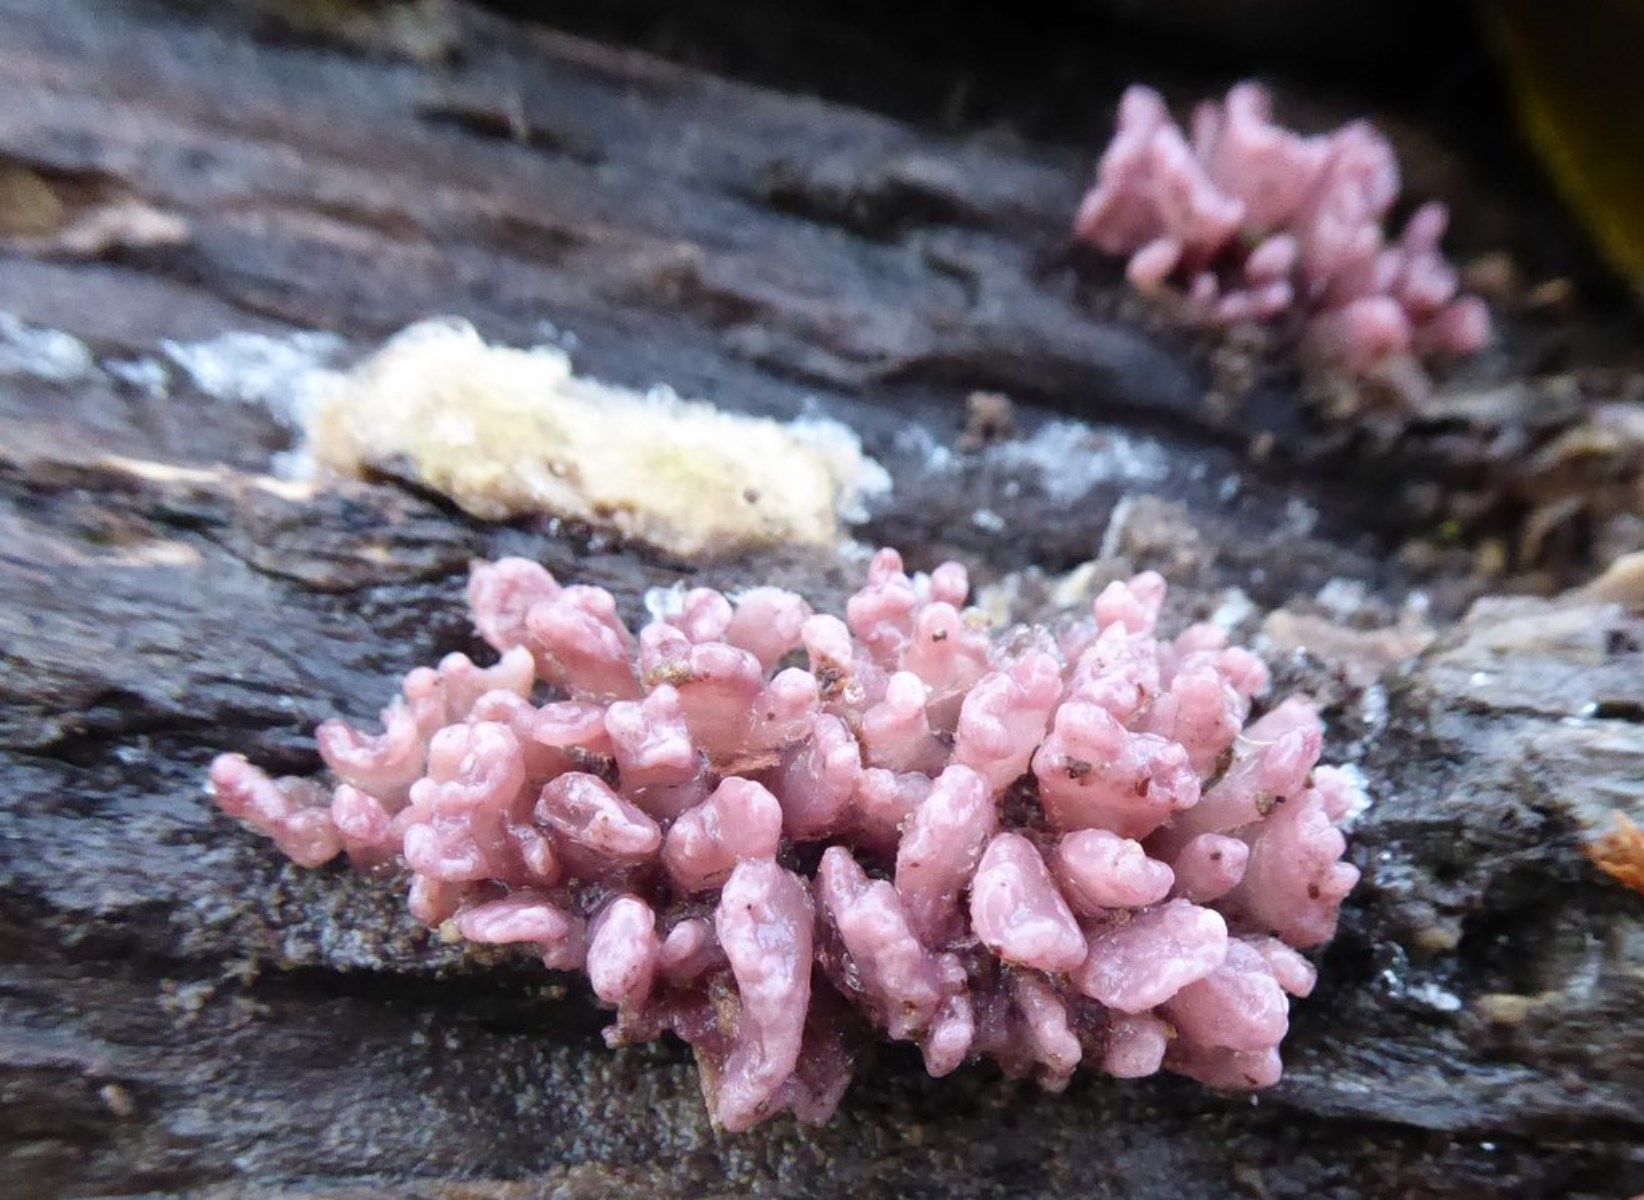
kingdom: Fungi
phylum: Ascomycota
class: Leotiomycetes
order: Helotiales
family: Gelatinodiscaceae
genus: Ascocoryne
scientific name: Ascocoryne sarcoides
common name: rødlilla sejskive
